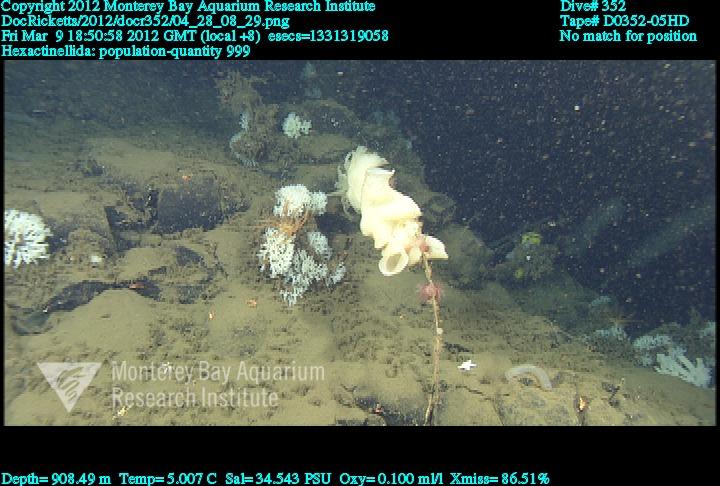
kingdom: Animalia
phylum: Porifera
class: Hexactinellida
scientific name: Hexactinellida
